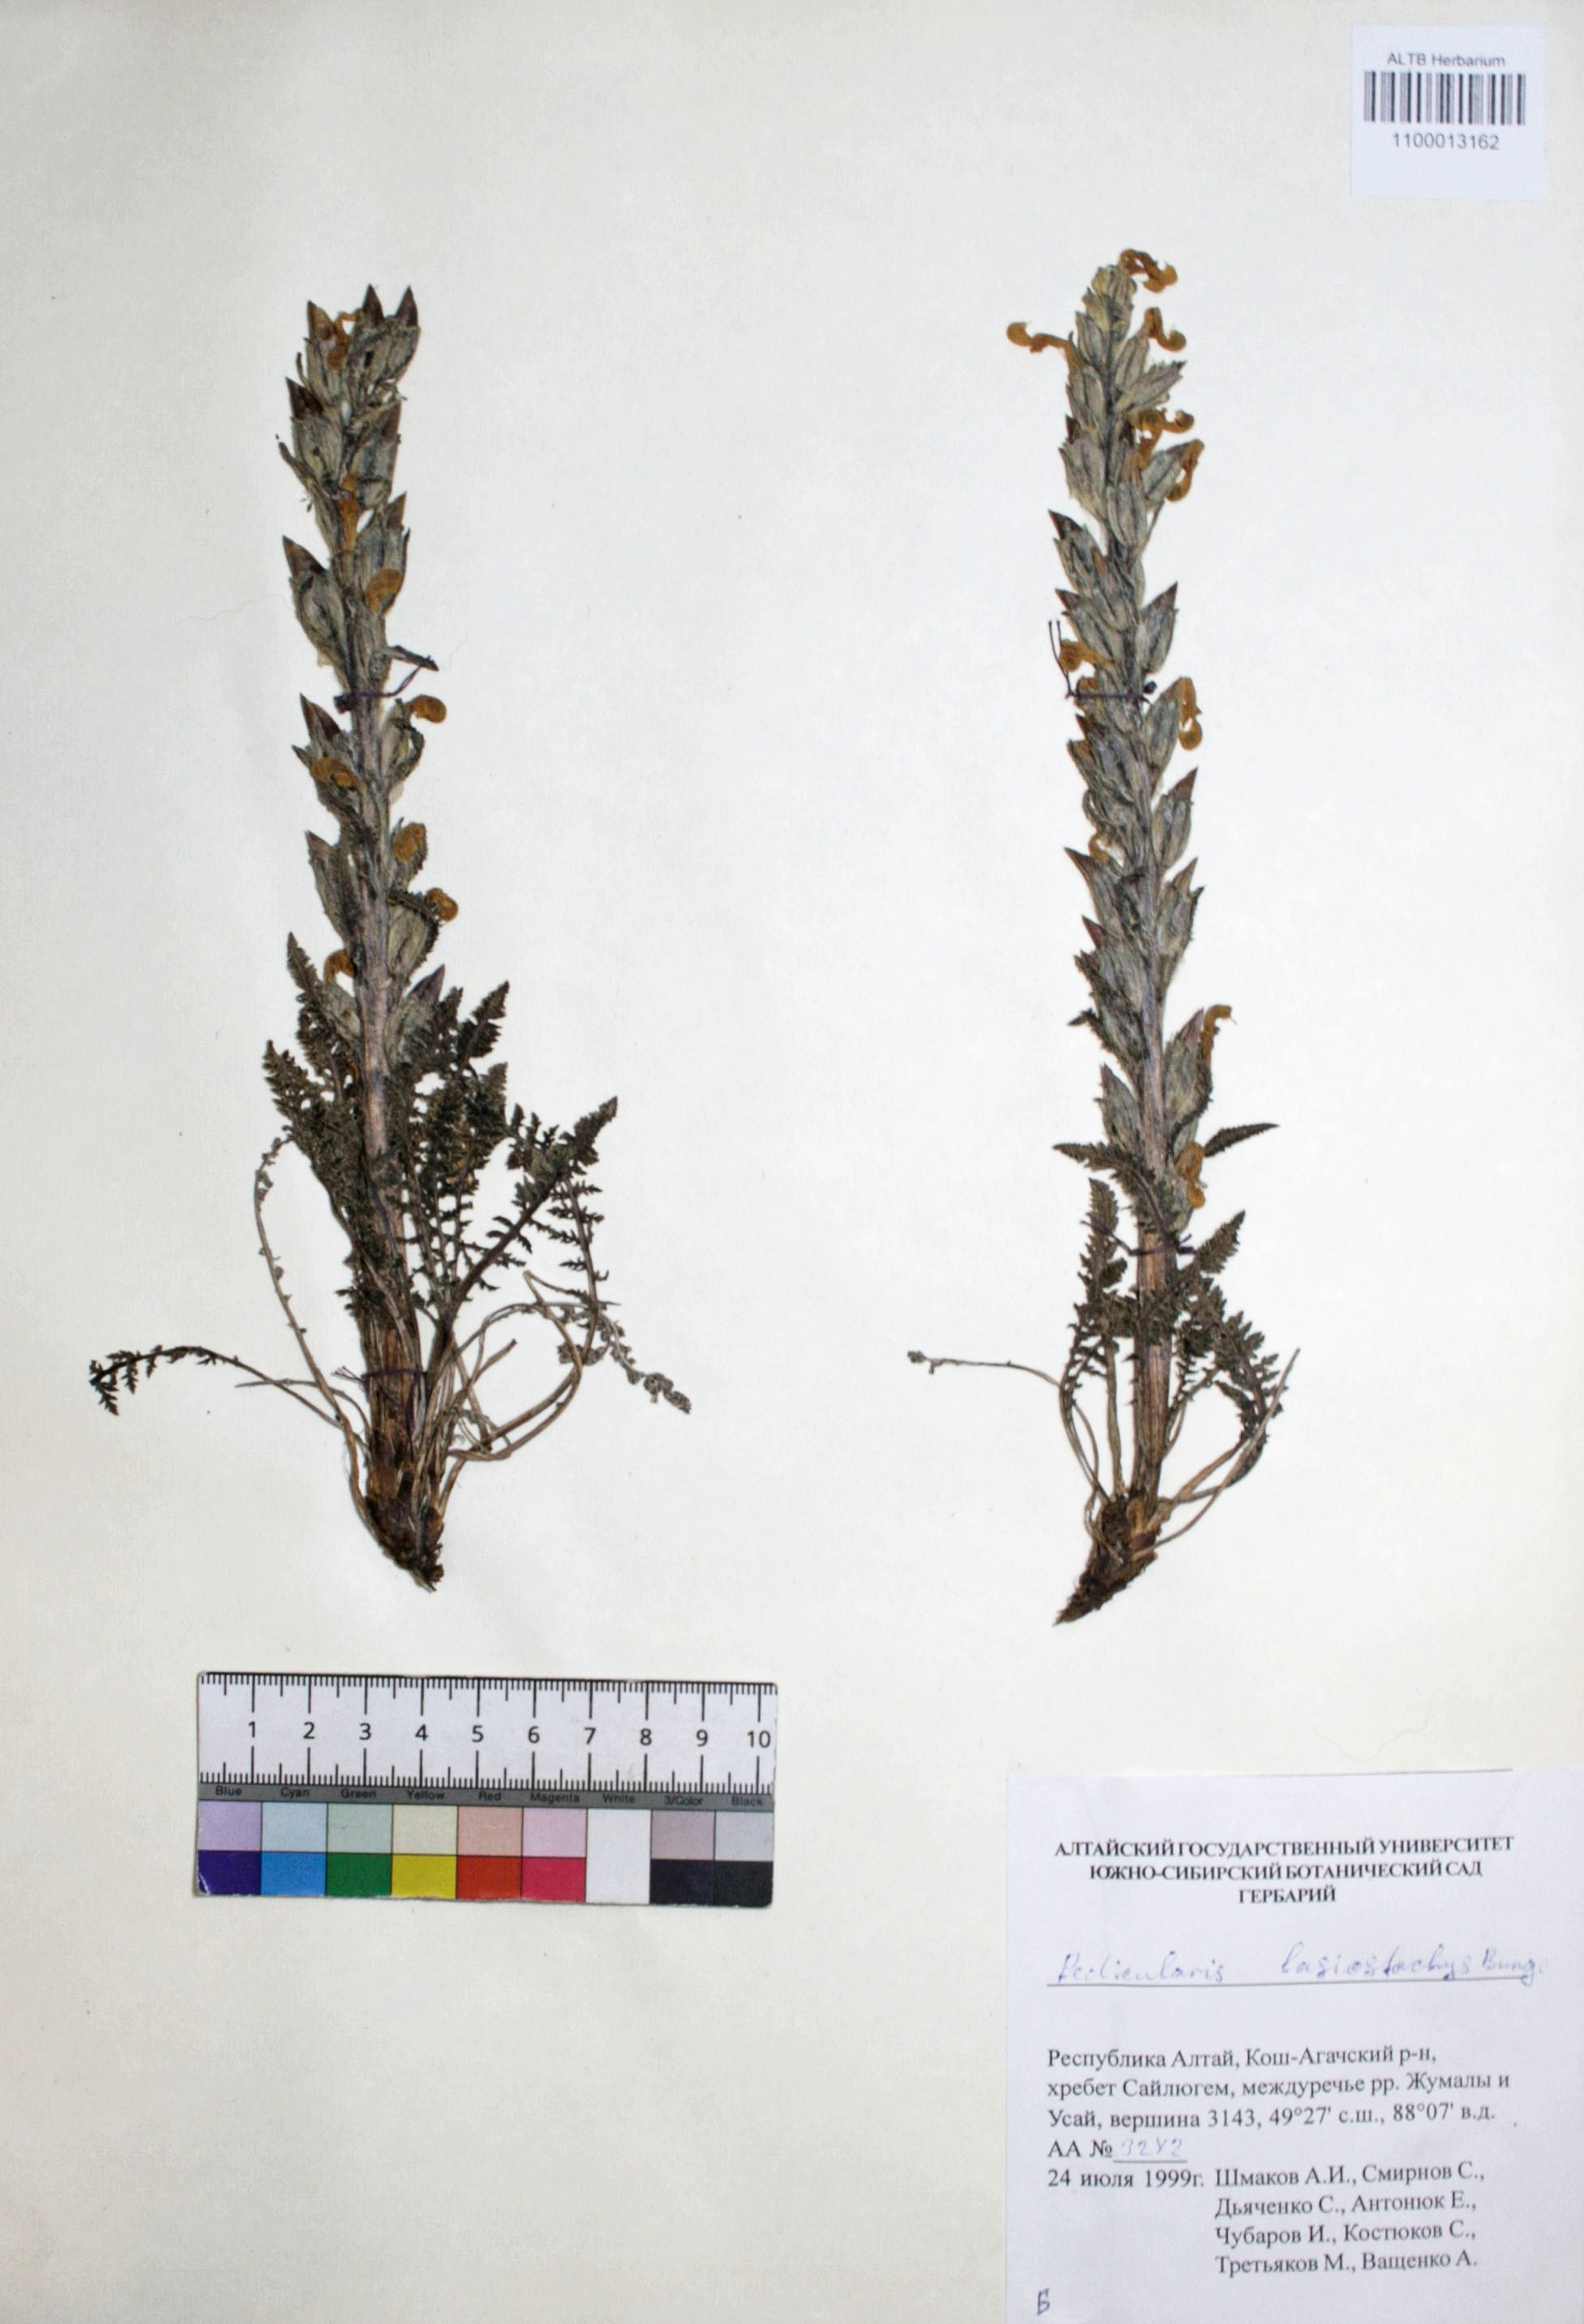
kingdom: Plantae
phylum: Tracheophyta
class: Magnoliopsida
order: Lamiales
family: Orobanchaceae
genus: Pedicularis
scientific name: Pedicularis lasiostachys
